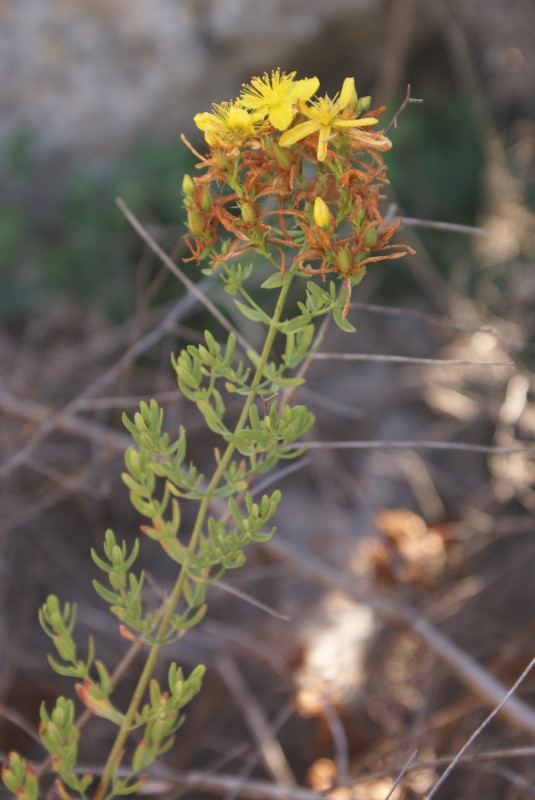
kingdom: Plantae
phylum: Tracheophyta
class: Magnoliopsida
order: Malpighiales
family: Hypericaceae
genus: Hypericum
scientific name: Hypericum perforatum
